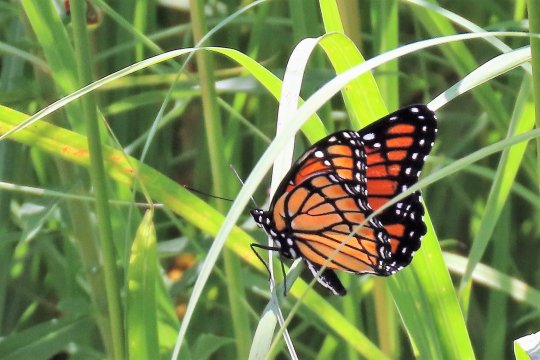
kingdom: Animalia
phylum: Arthropoda
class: Insecta
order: Lepidoptera
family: Nymphalidae
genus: Limenitis
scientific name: Limenitis archippus
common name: Viceroy
